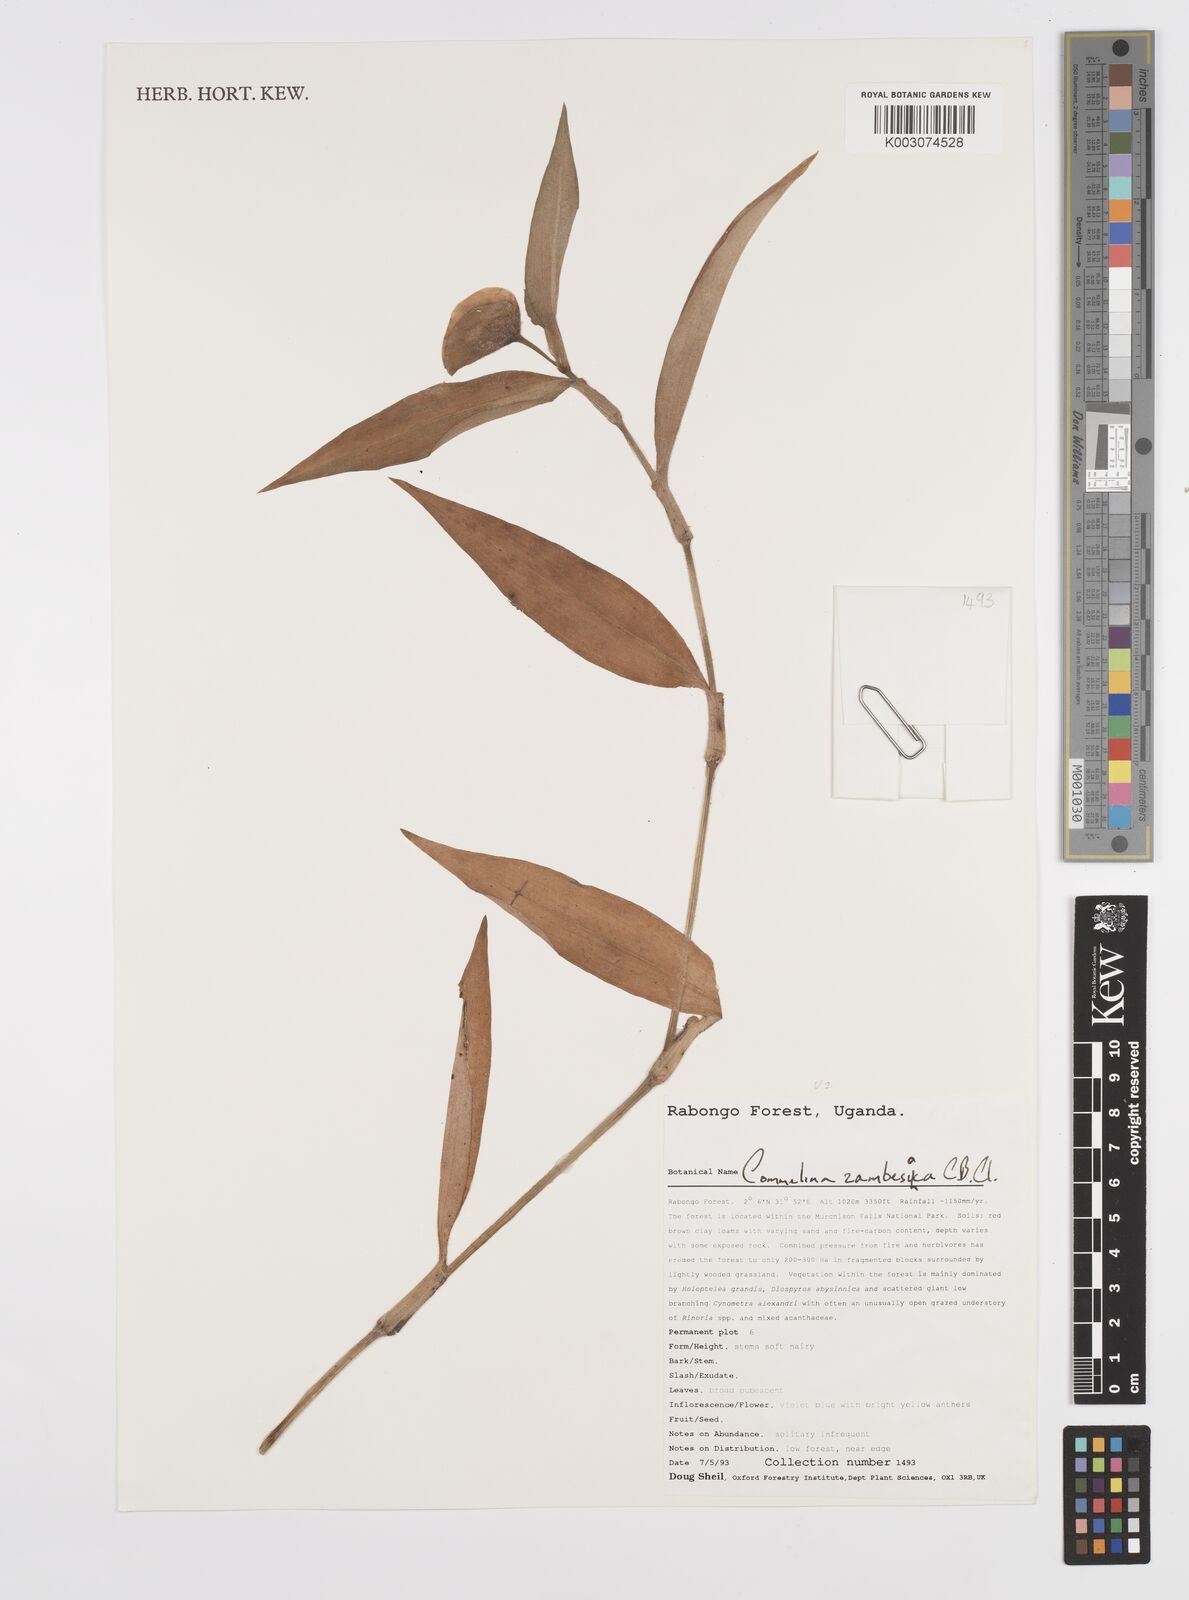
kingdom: Plantae
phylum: Tracheophyta
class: Liliopsida
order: Commelinales
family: Commelinaceae
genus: Commelina
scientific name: Commelina zambesica
